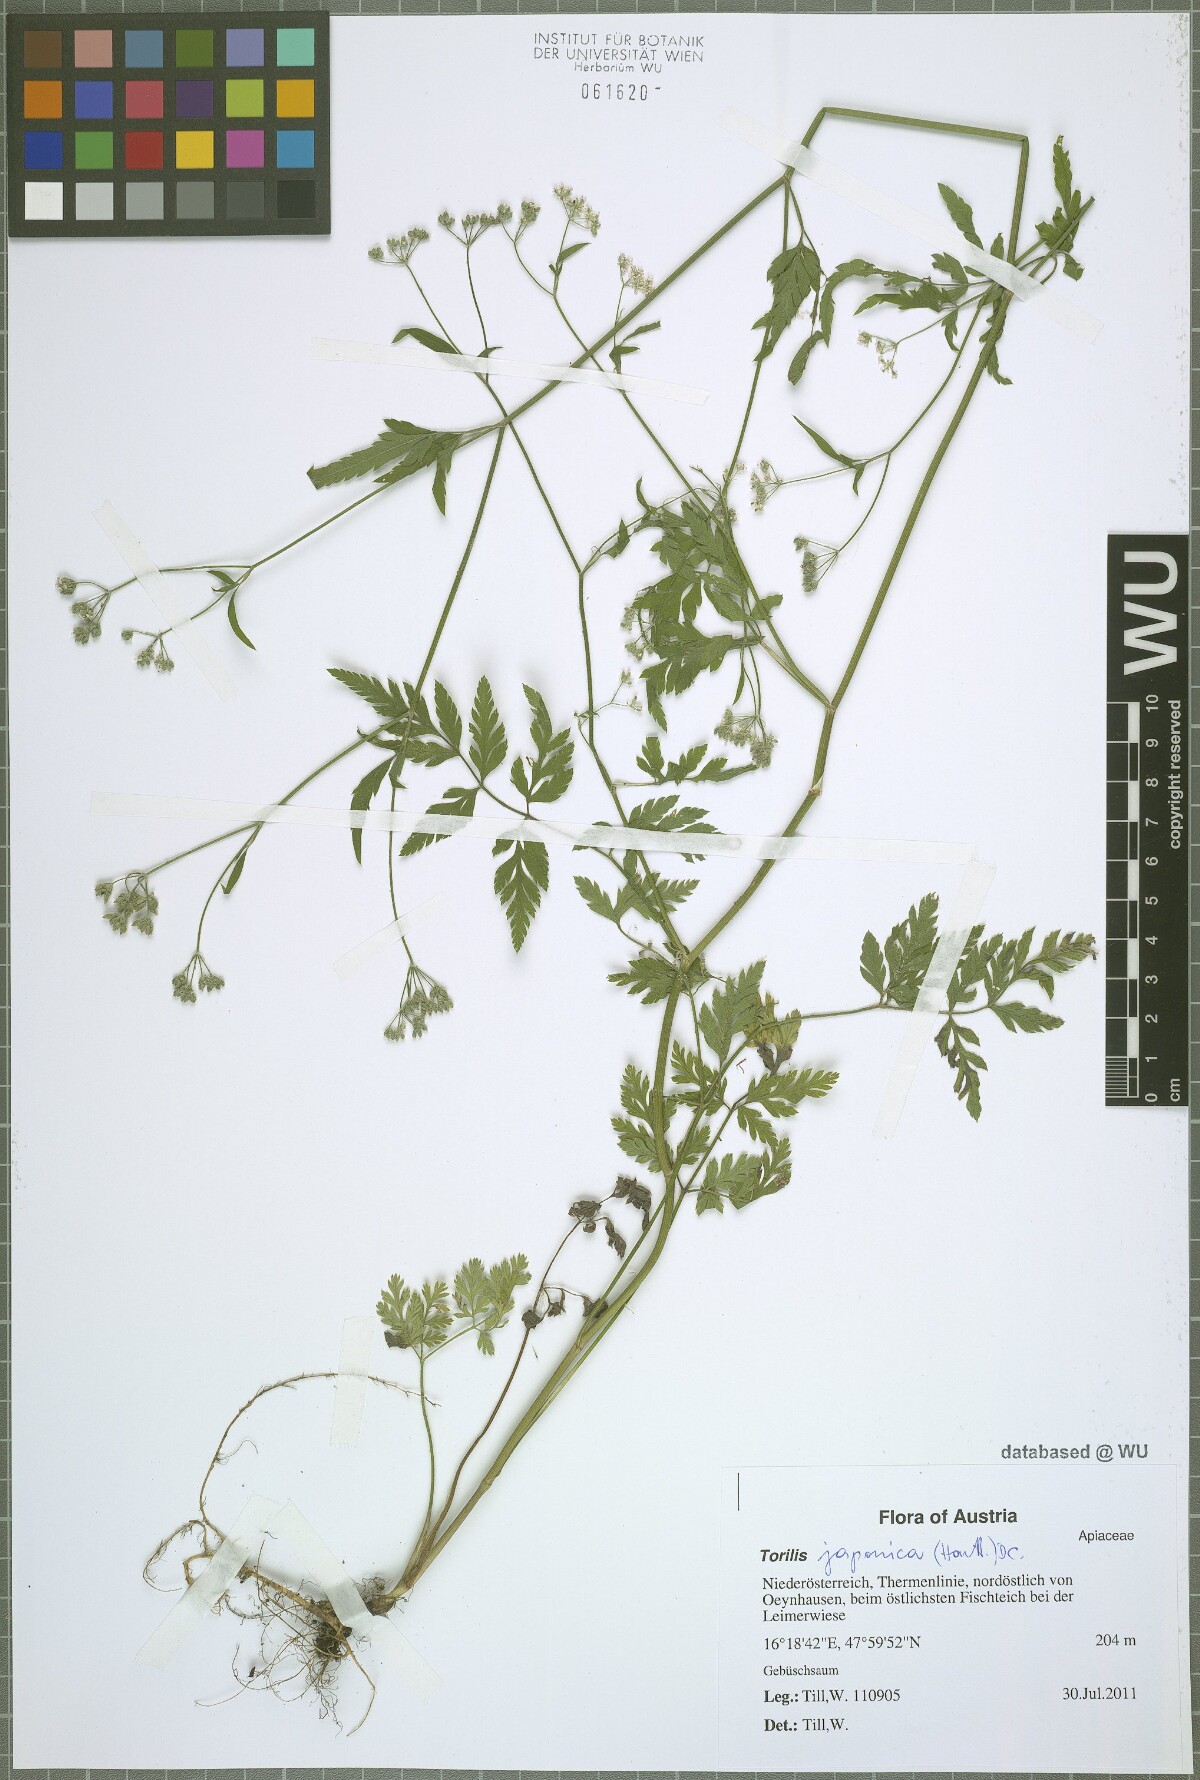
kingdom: Plantae
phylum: Tracheophyta
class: Magnoliopsida
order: Apiales
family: Apiaceae
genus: Torilis
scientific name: Torilis japonica
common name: Upright hedge-parsley
